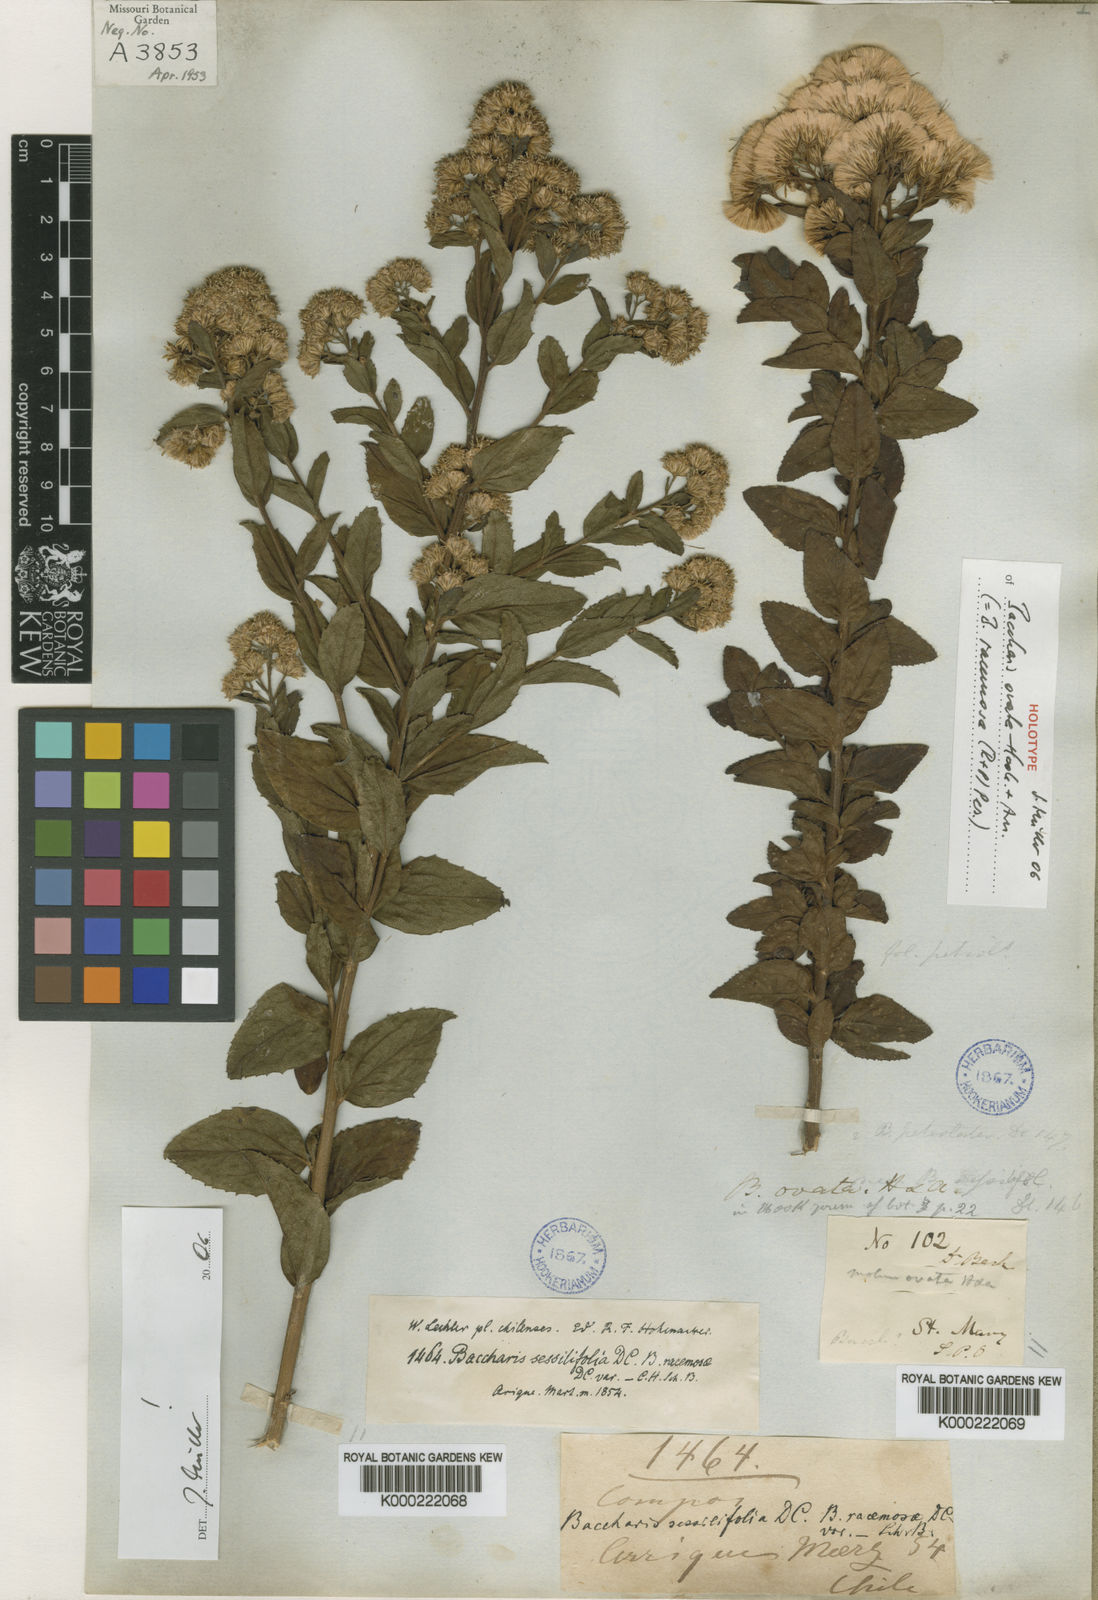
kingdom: Plantae
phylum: Tracheophyta
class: Magnoliopsida
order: Asterales
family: Asteraceae
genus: Baccharis
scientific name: Baccharis racemosa
